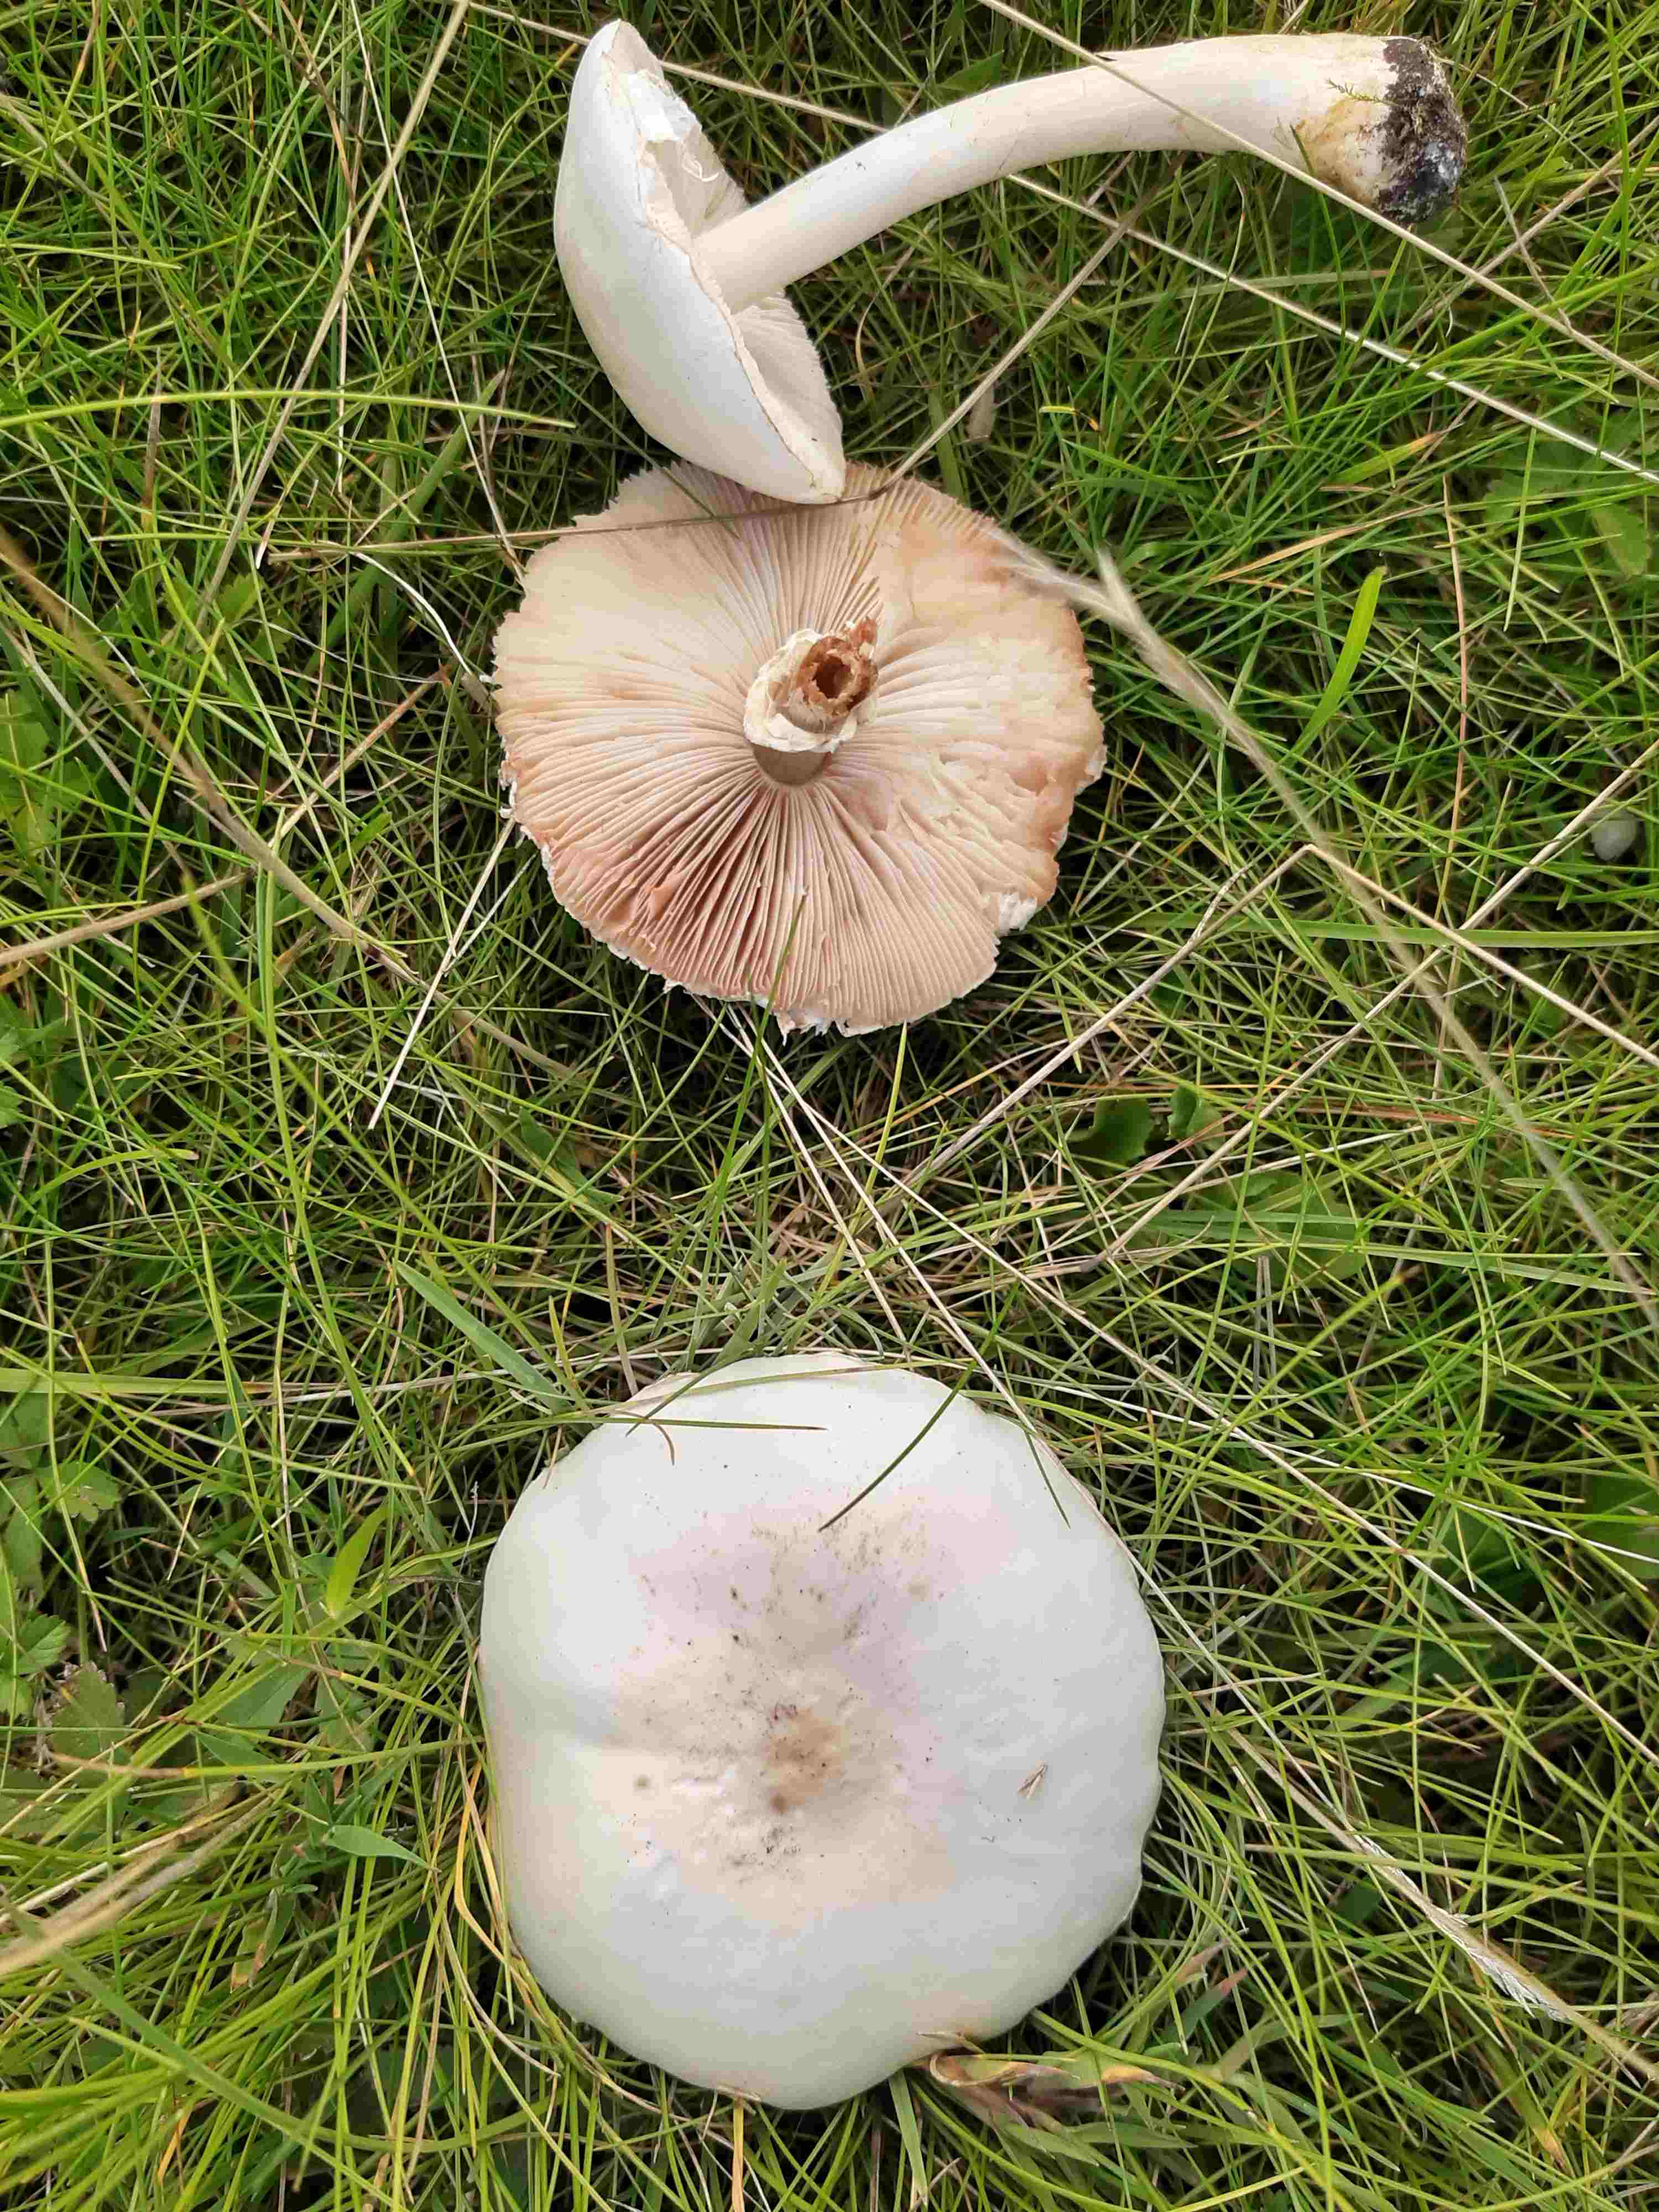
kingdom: Fungi
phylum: Basidiomycota
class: Agaricomycetes
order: Agaricales
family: Agaricaceae
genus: Leucoagaricus
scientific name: Leucoagaricus leucothites
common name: rosabladet silkehat
